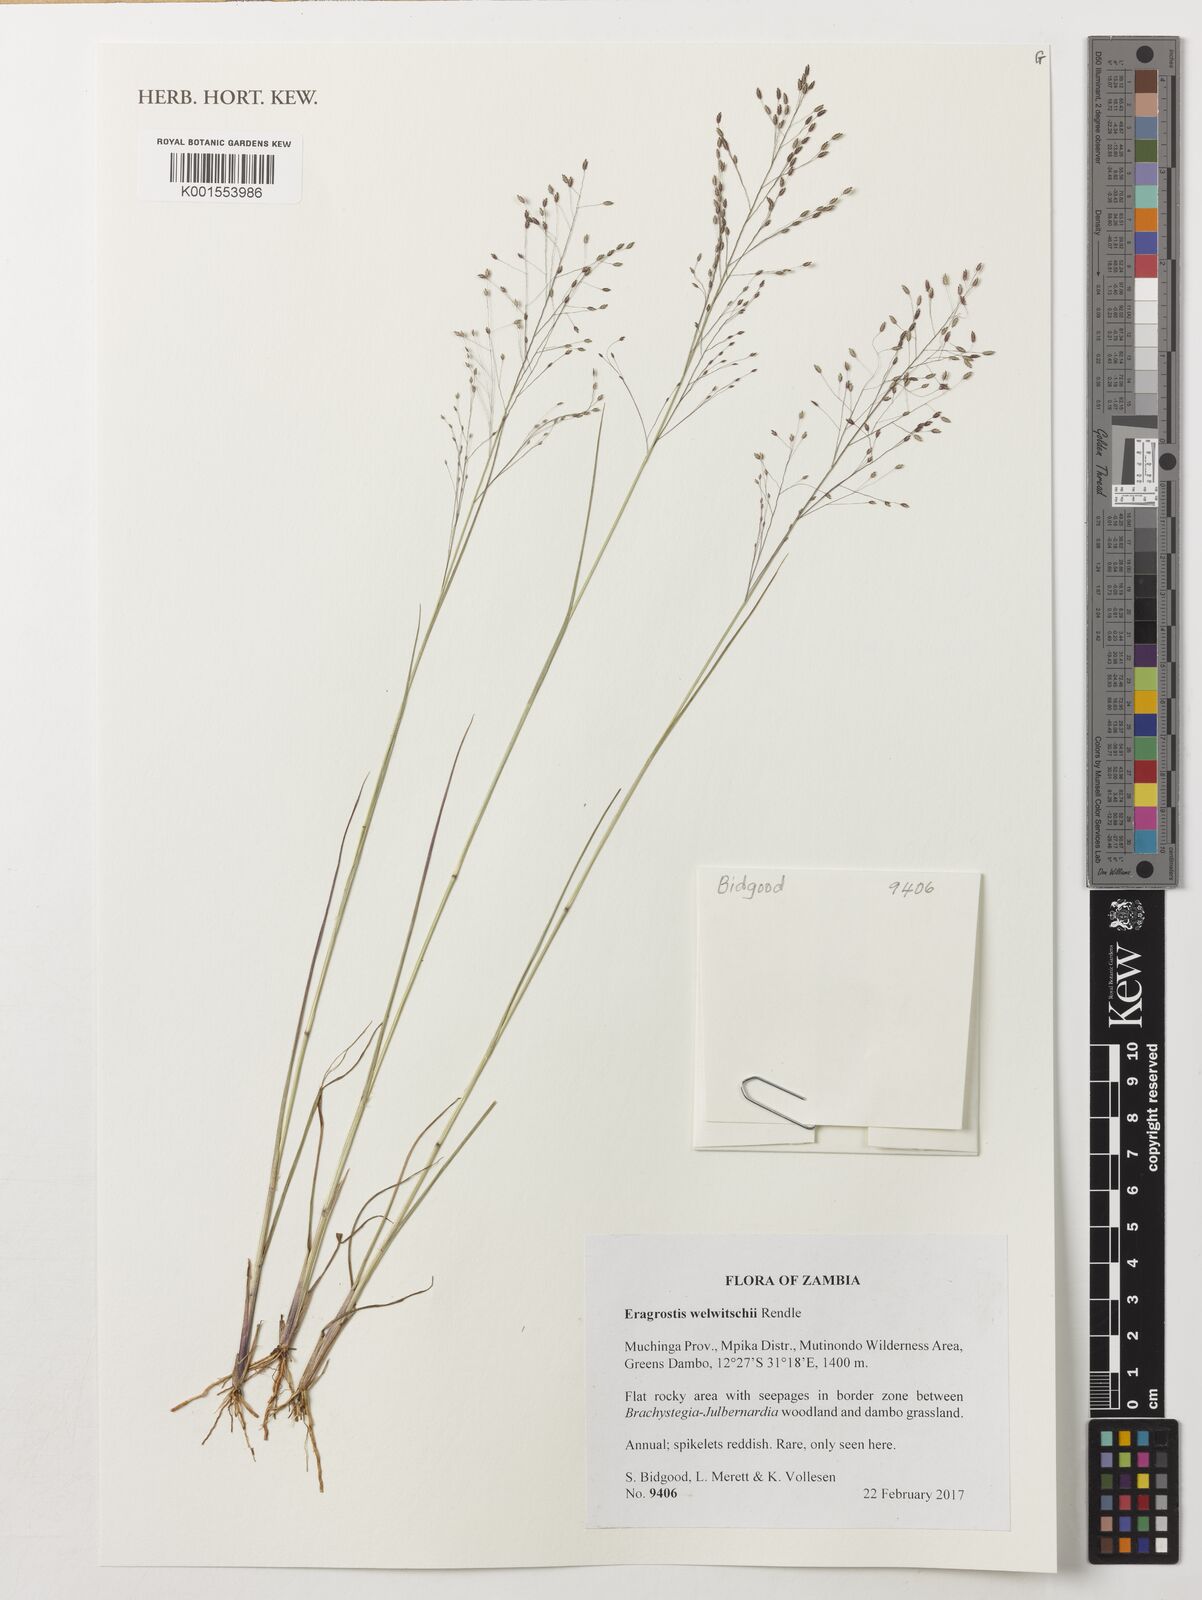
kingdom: Plantae
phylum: Tracheophyta
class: Liliopsida
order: Poales
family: Poaceae
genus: Eragrostis
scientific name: Eragrostis welwitschii
